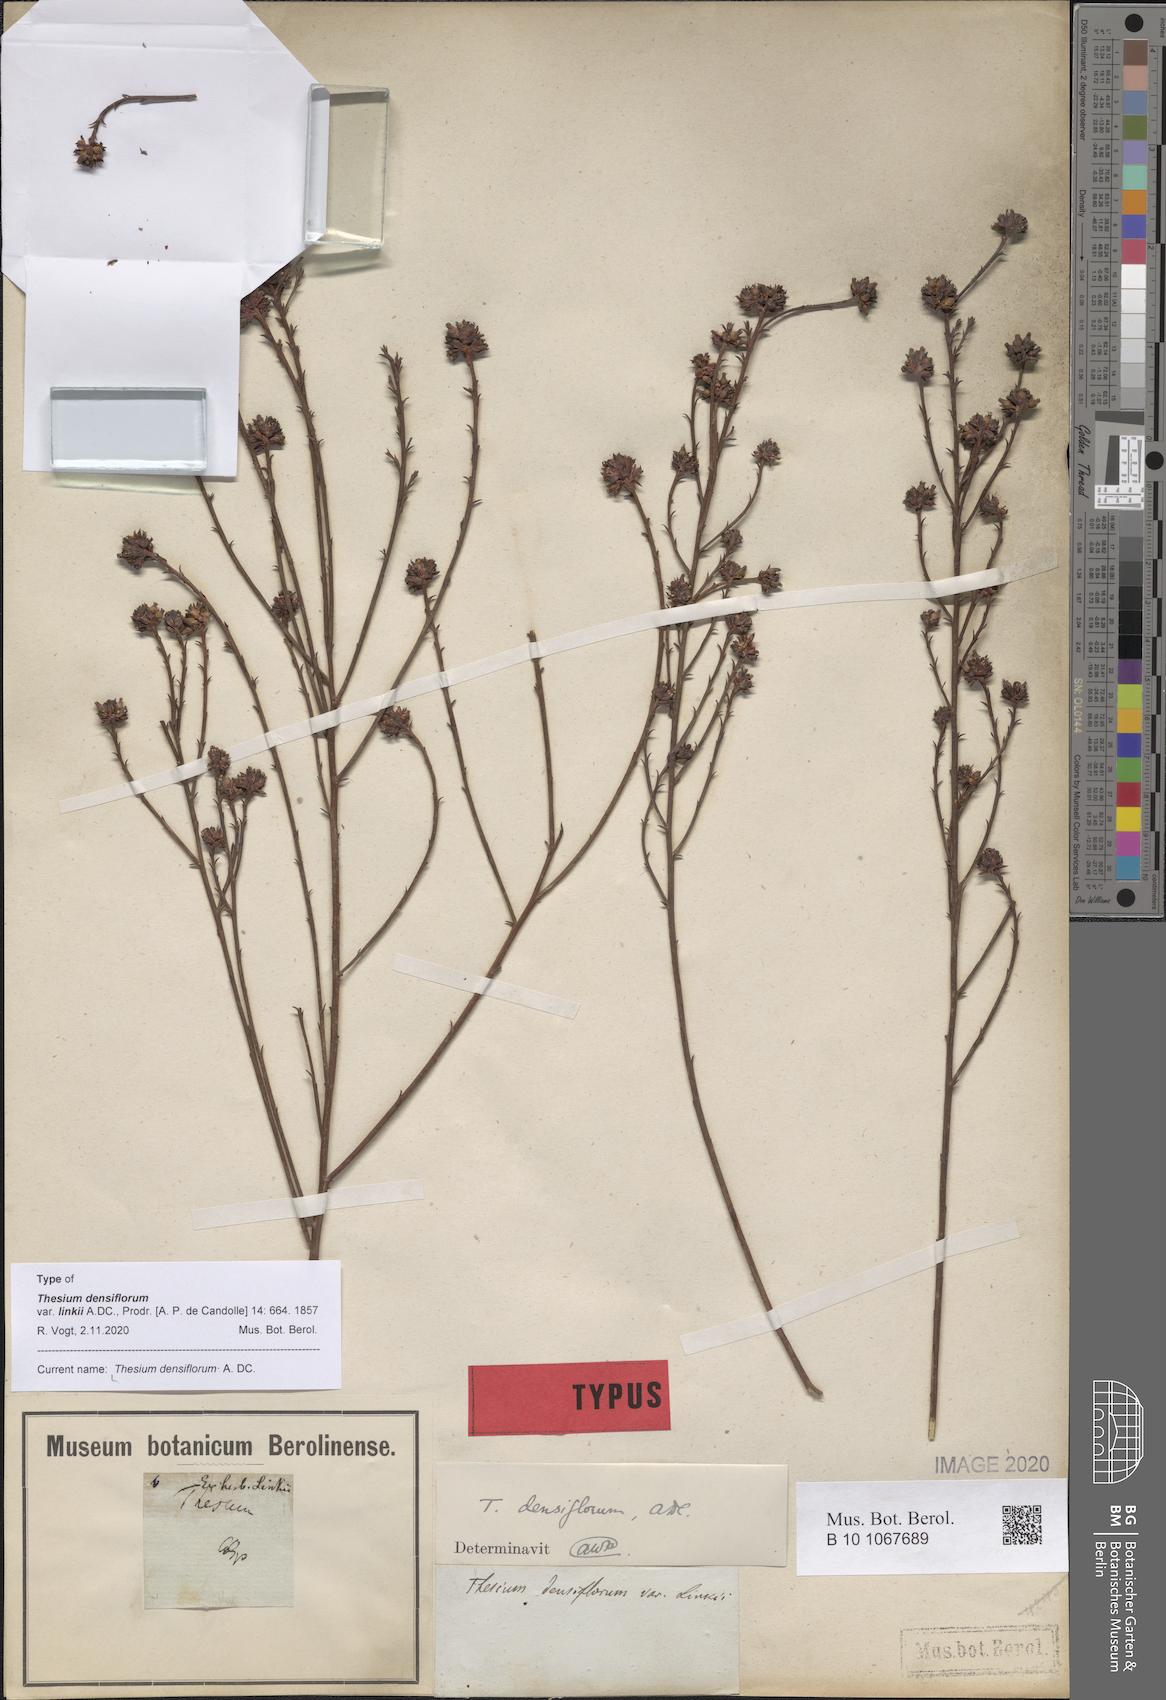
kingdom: Plantae
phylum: Tracheophyta
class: Magnoliopsida
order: Santalales
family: Thesiaceae
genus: Thesium
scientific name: Thesium densiflorum
